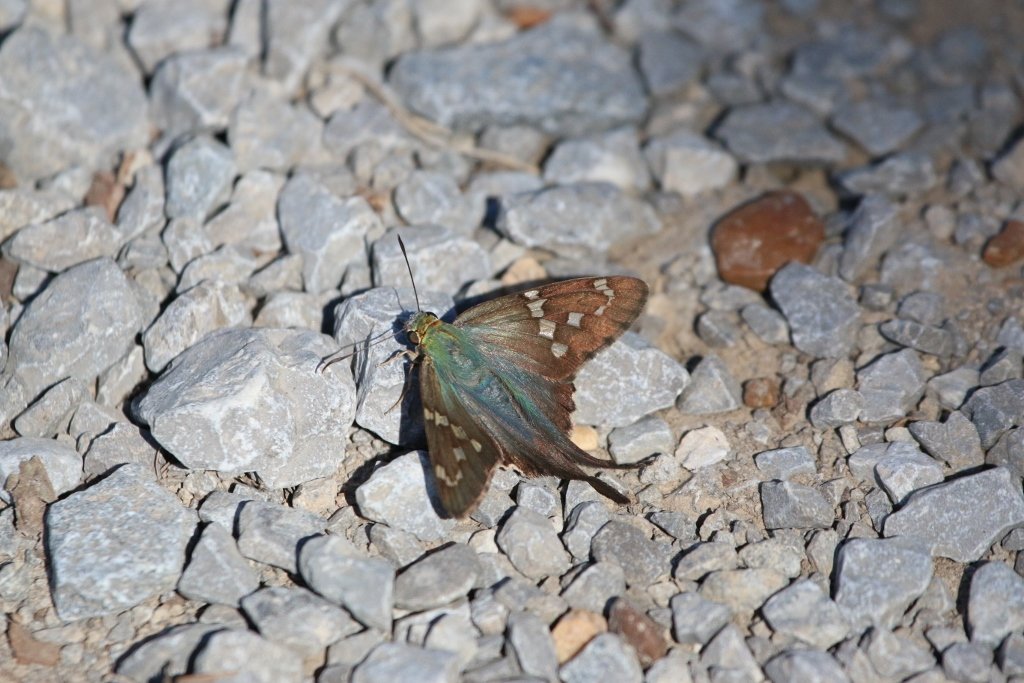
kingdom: Animalia
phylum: Arthropoda
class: Insecta
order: Lepidoptera
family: Hesperiidae
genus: Urbanus
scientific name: Urbanus proteus
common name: Long-tailed Skipper
